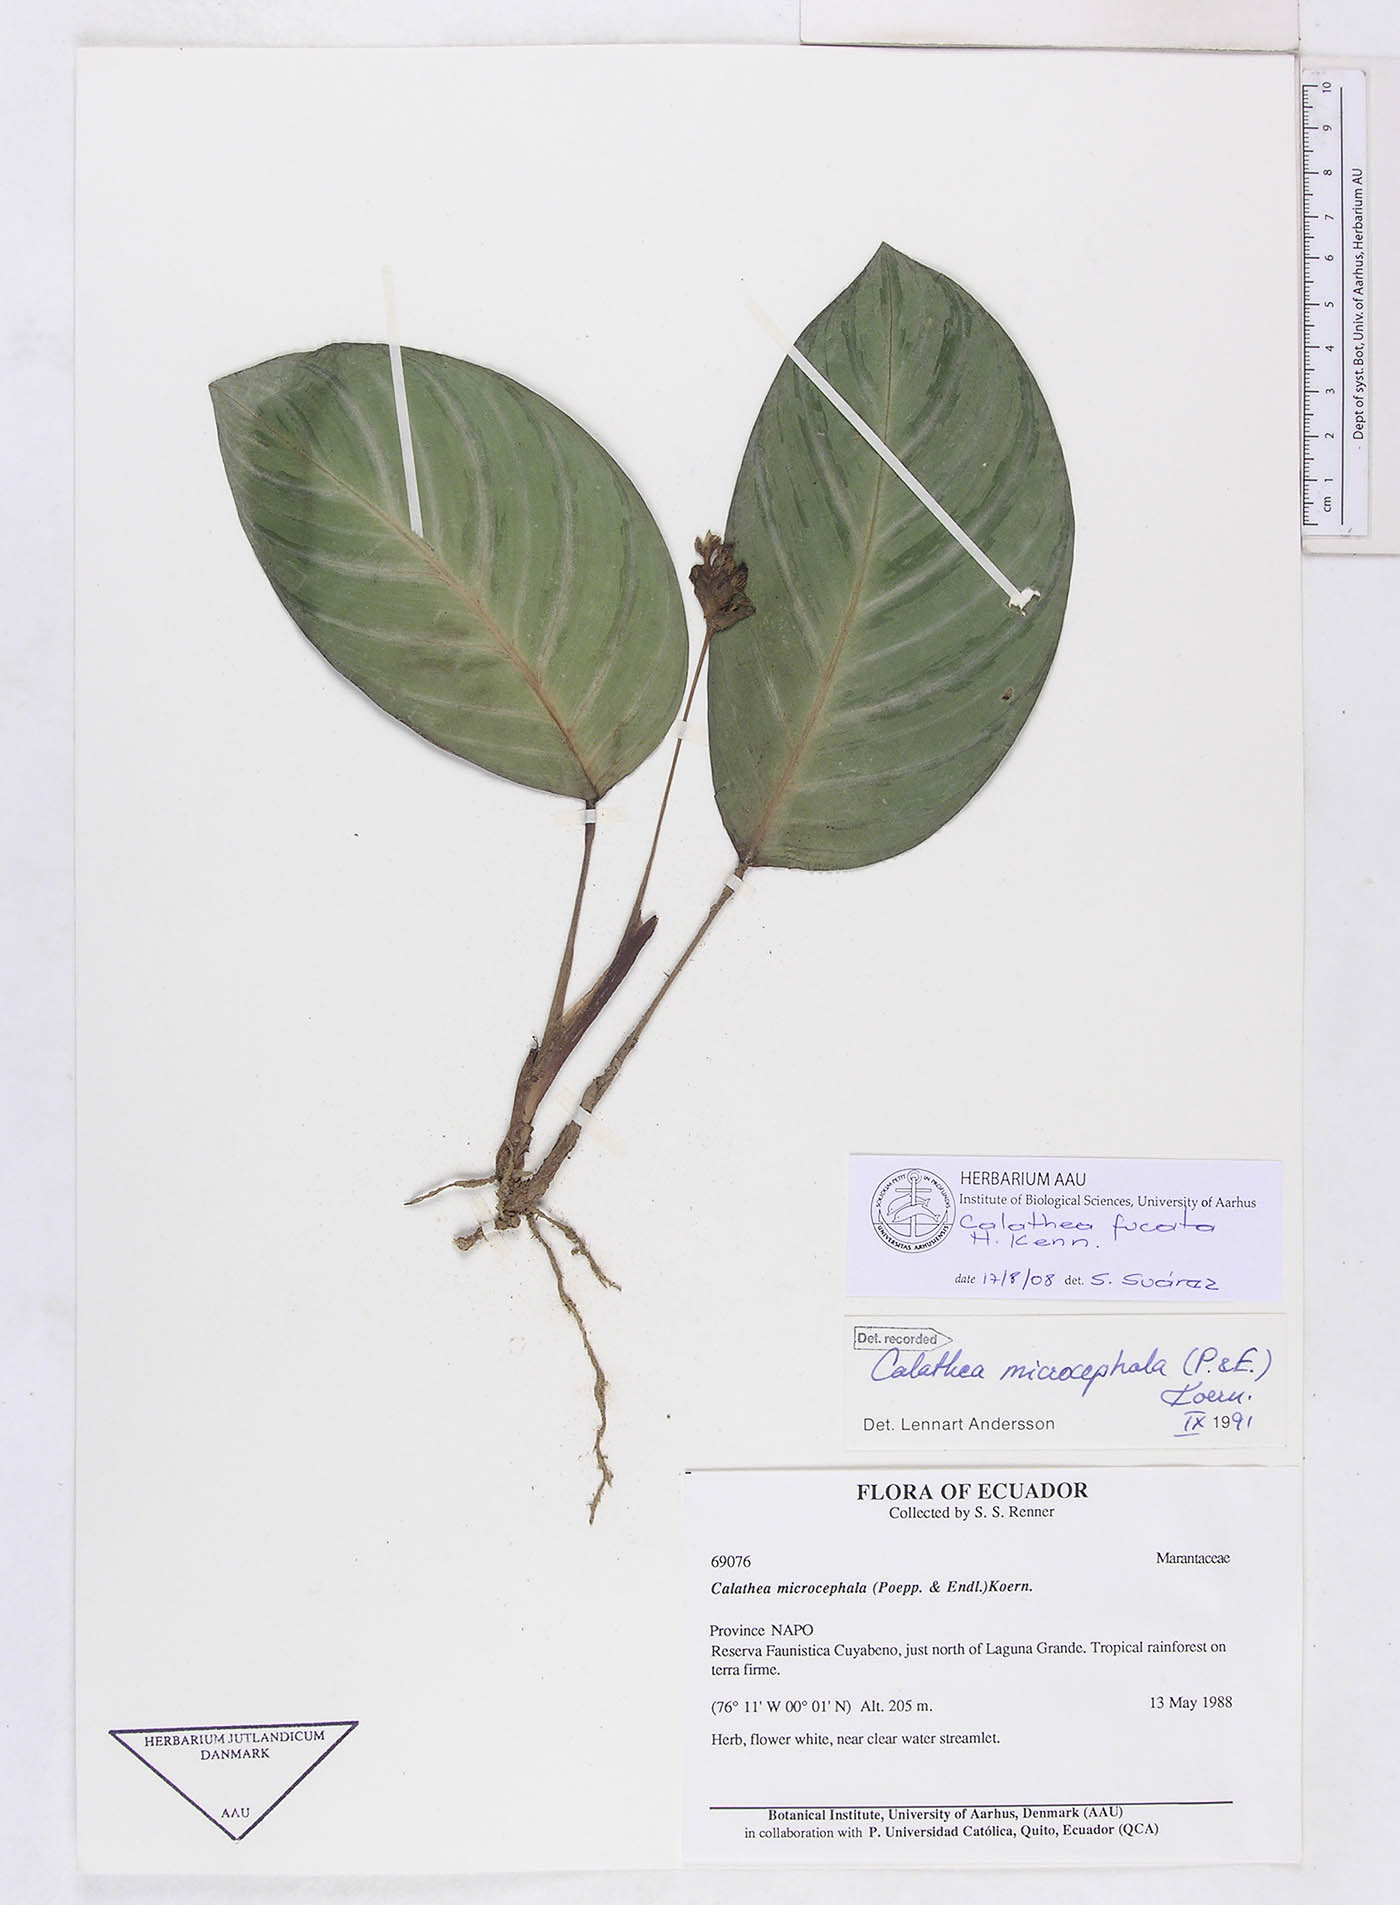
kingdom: Plantae
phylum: Tracheophyta
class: Liliopsida
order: Zingiberales
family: Marantaceae
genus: Goeppertia
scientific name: Goeppertia fucata
